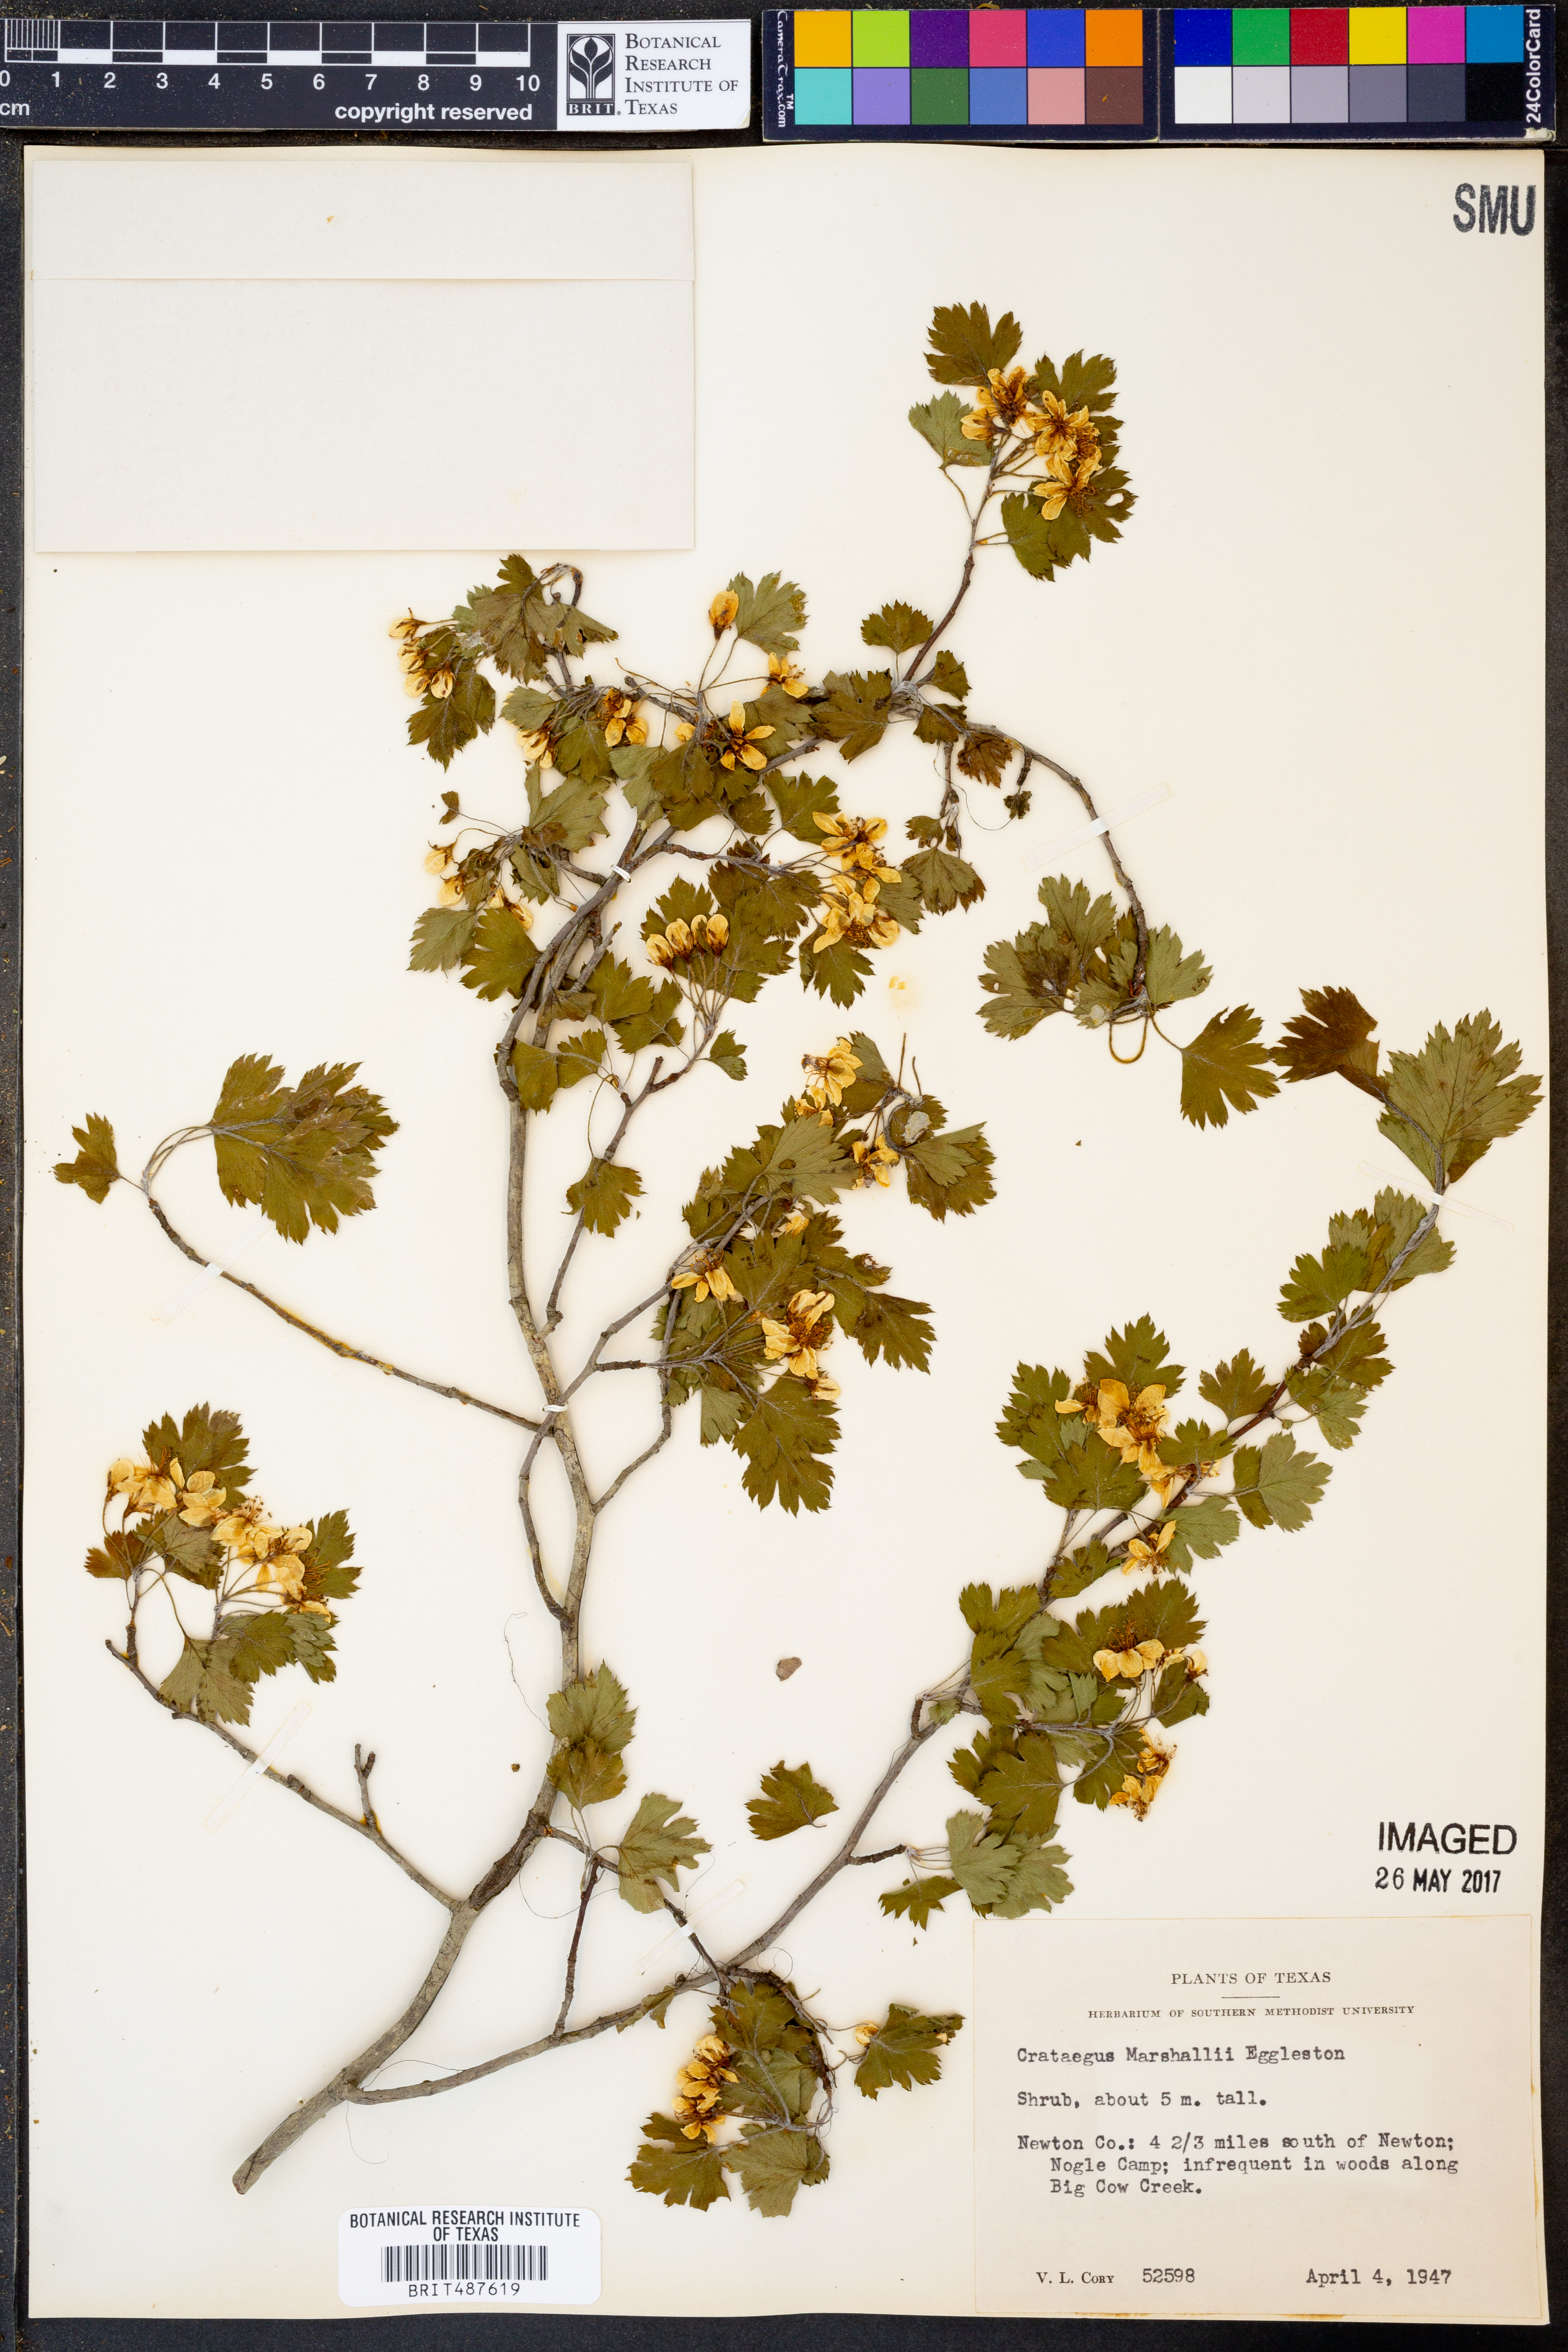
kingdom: Plantae
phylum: Tracheophyta
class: Magnoliopsida
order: Rosales
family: Rosaceae
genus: Crataegus
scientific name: Crataegus marshallii
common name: Parsley-hawthorn
